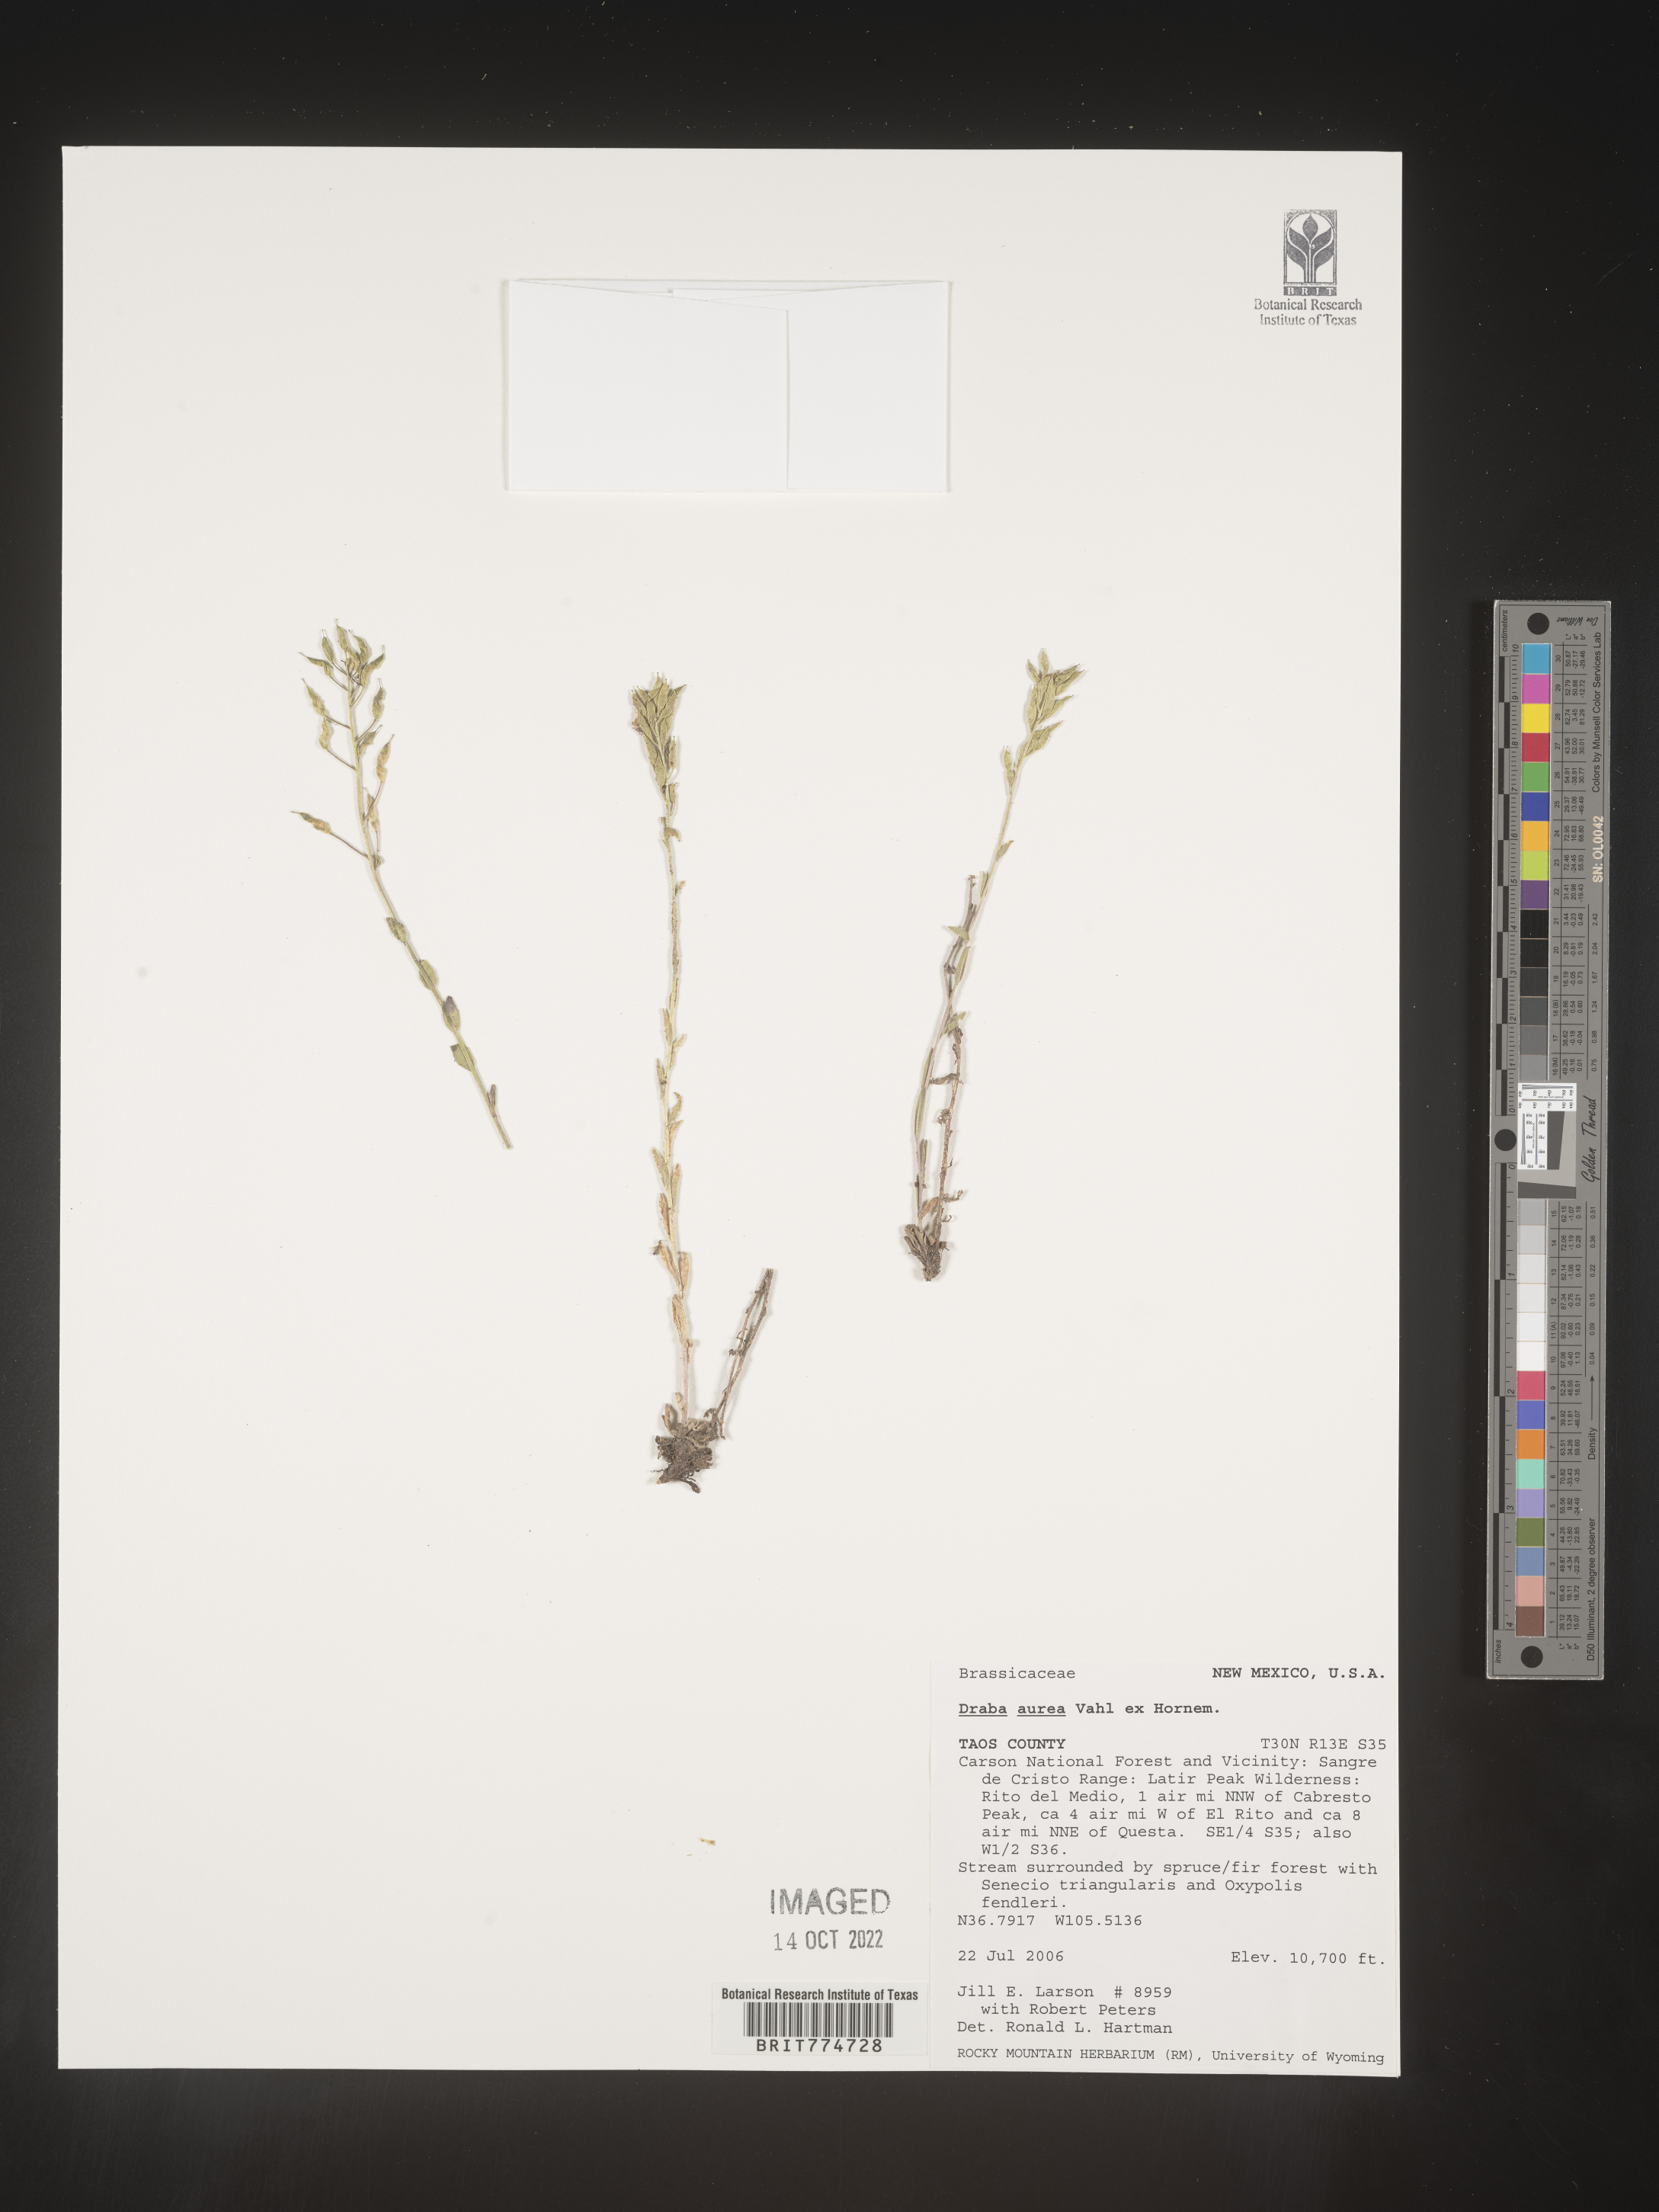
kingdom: Plantae
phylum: Tracheophyta
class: Magnoliopsida
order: Brassicales
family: Brassicaceae
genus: Draba
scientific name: Draba
